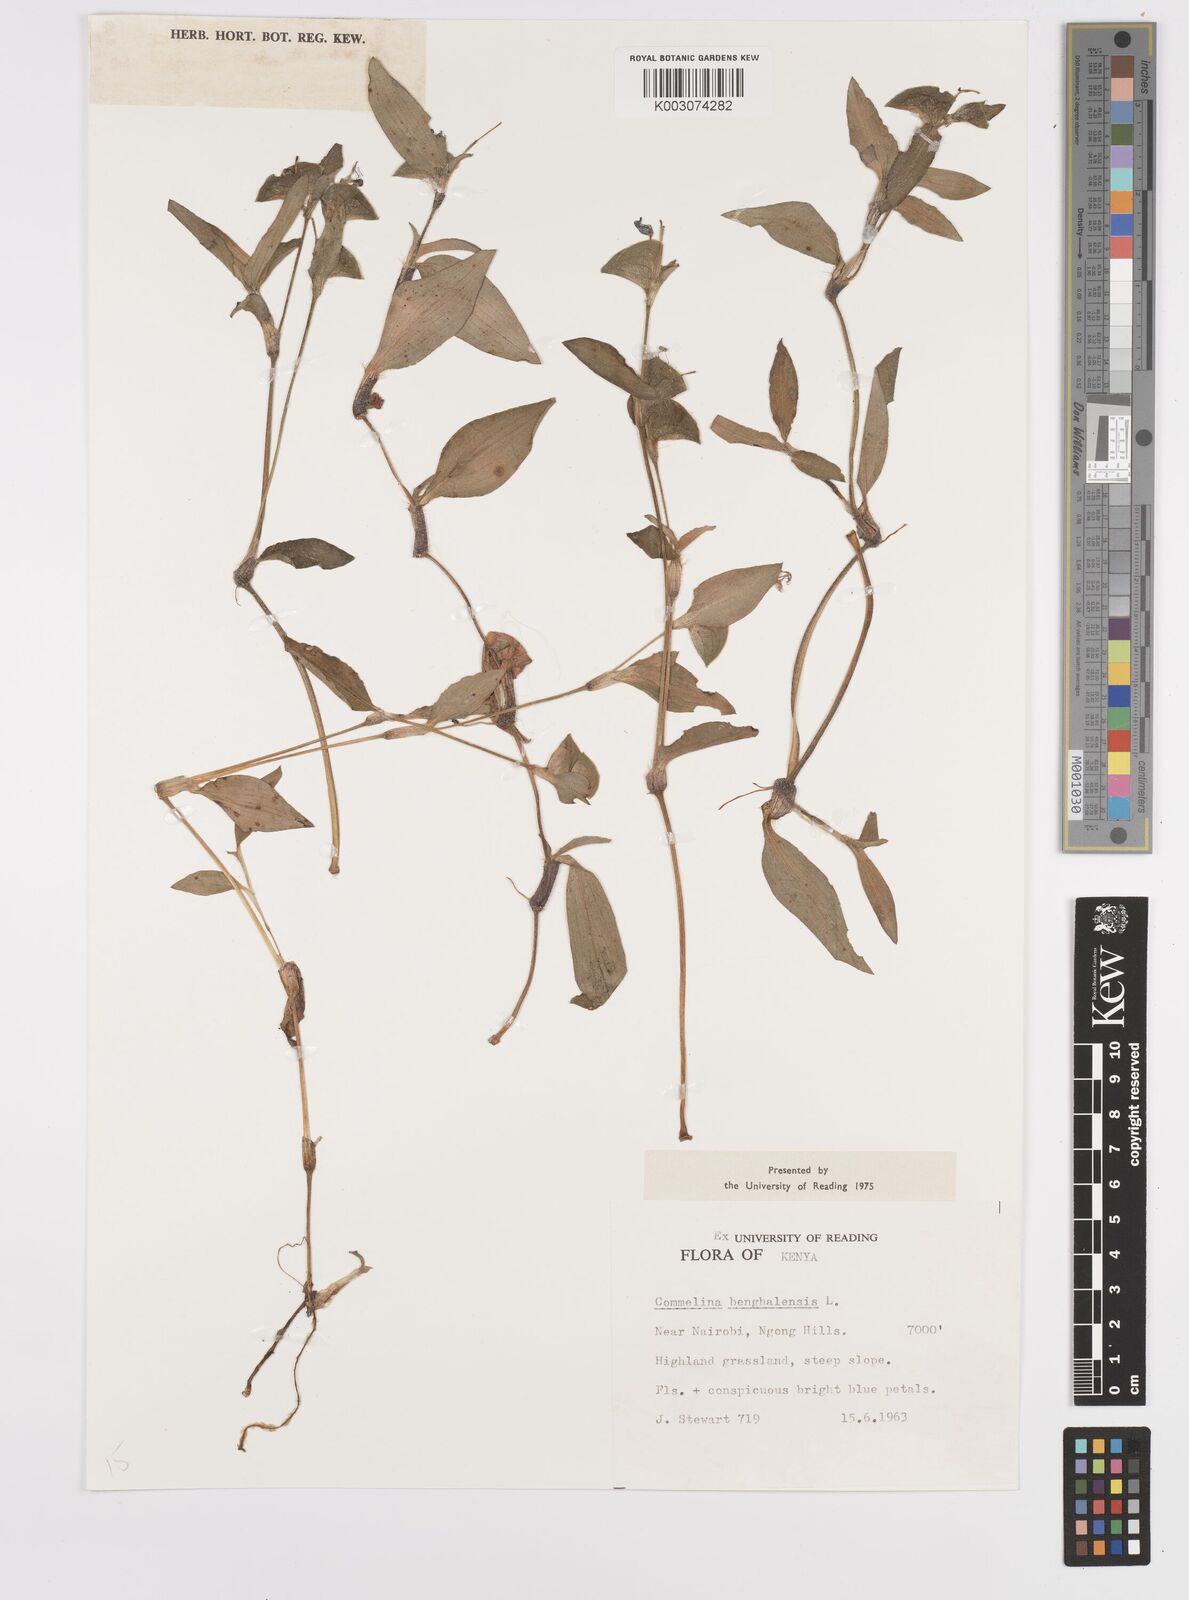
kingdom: Plantae
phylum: Tracheophyta
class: Liliopsida
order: Commelinales
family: Commelinaceae
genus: Commelina
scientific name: Commelina benghalensis
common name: Jio
